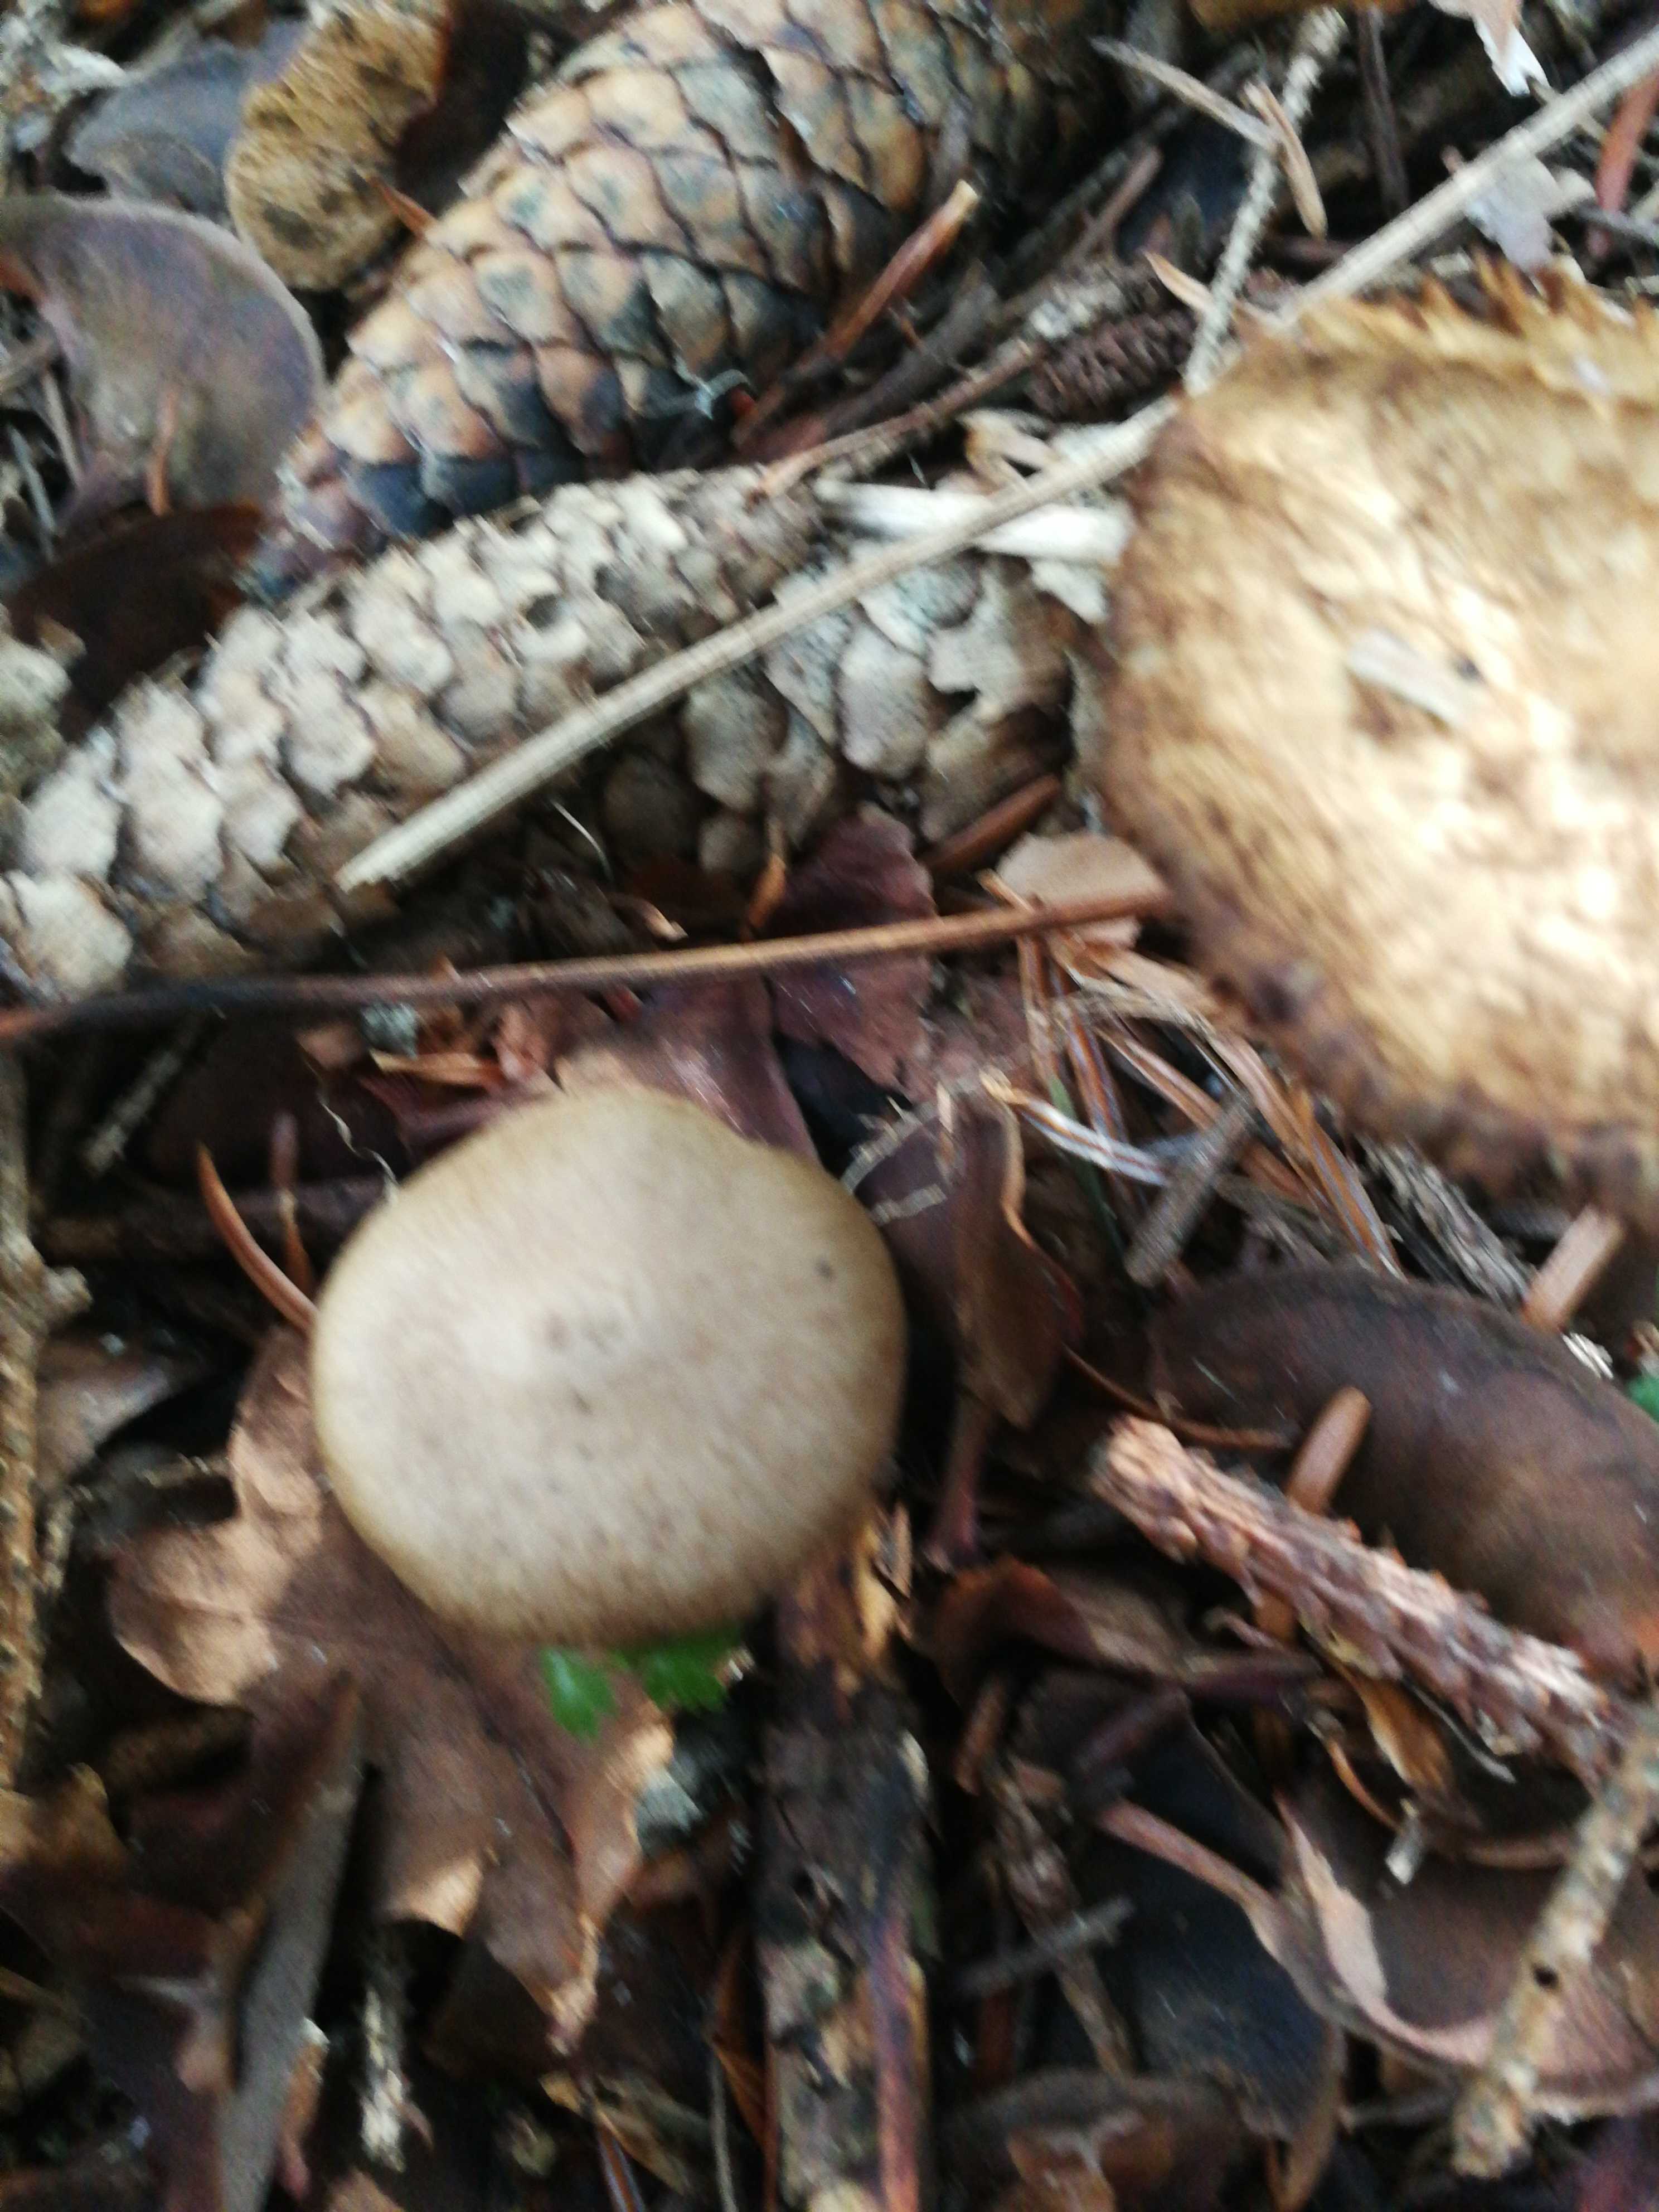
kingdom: Fungi
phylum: Basidiomycota
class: Agaricomycetes
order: Agaricales
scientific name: Agaricales
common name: champignonordenen
